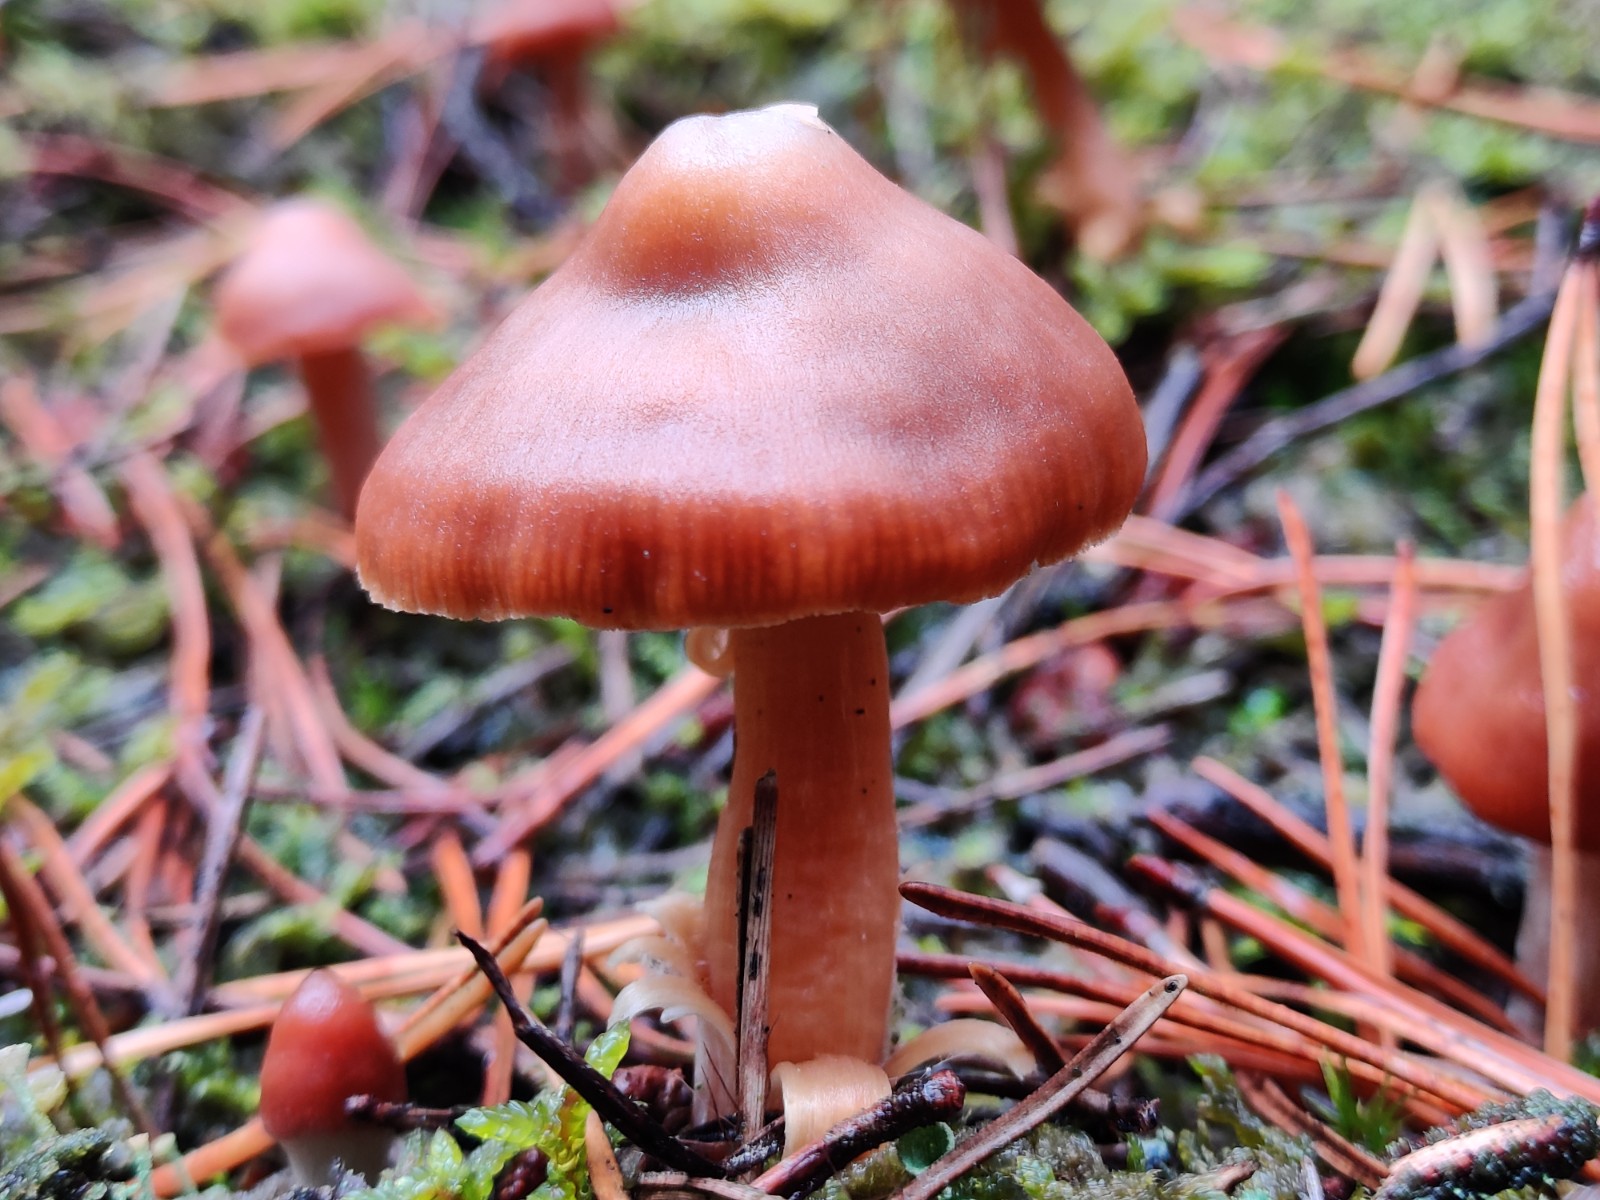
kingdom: Fungi
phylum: Basidiomycota
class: Agaricomycetes
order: Agaricales
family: Cortinariaceae
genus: Cortinarius
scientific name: Cortinarius
